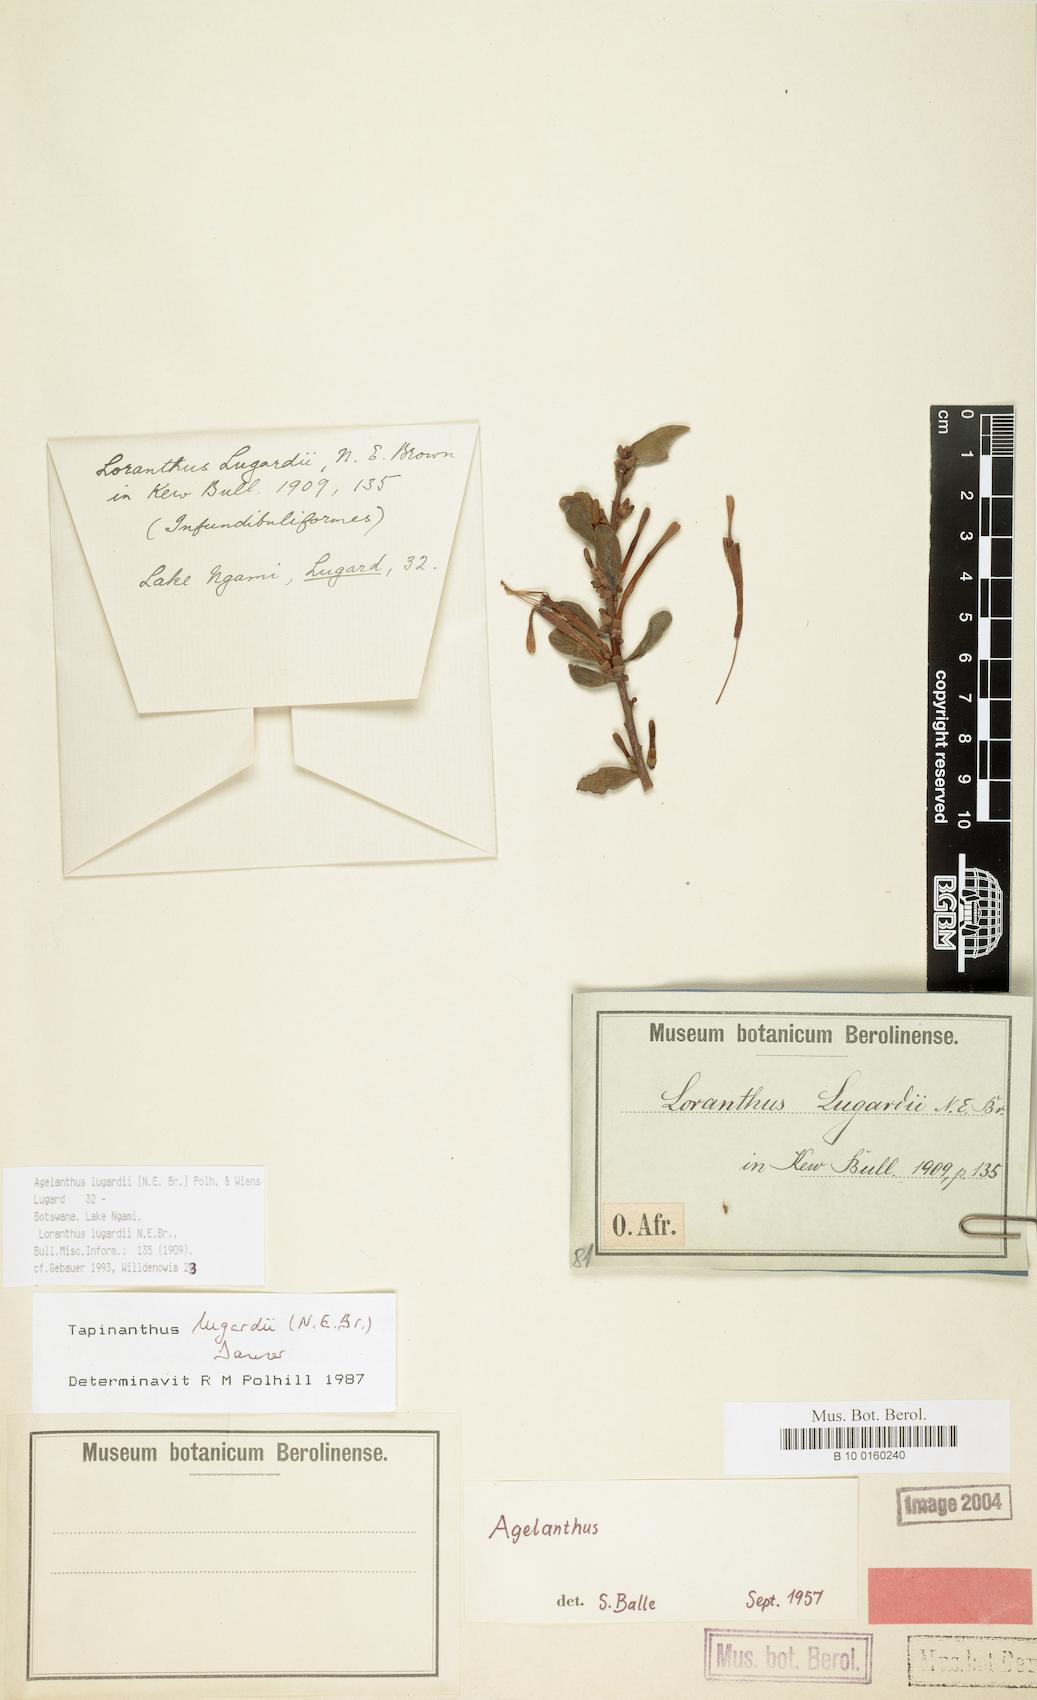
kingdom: Plantae
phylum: Tracheophyta
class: Magnoliopsida
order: Santalales
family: Loranthaceae
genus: Agelanthus
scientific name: Agelanthus lugardii
